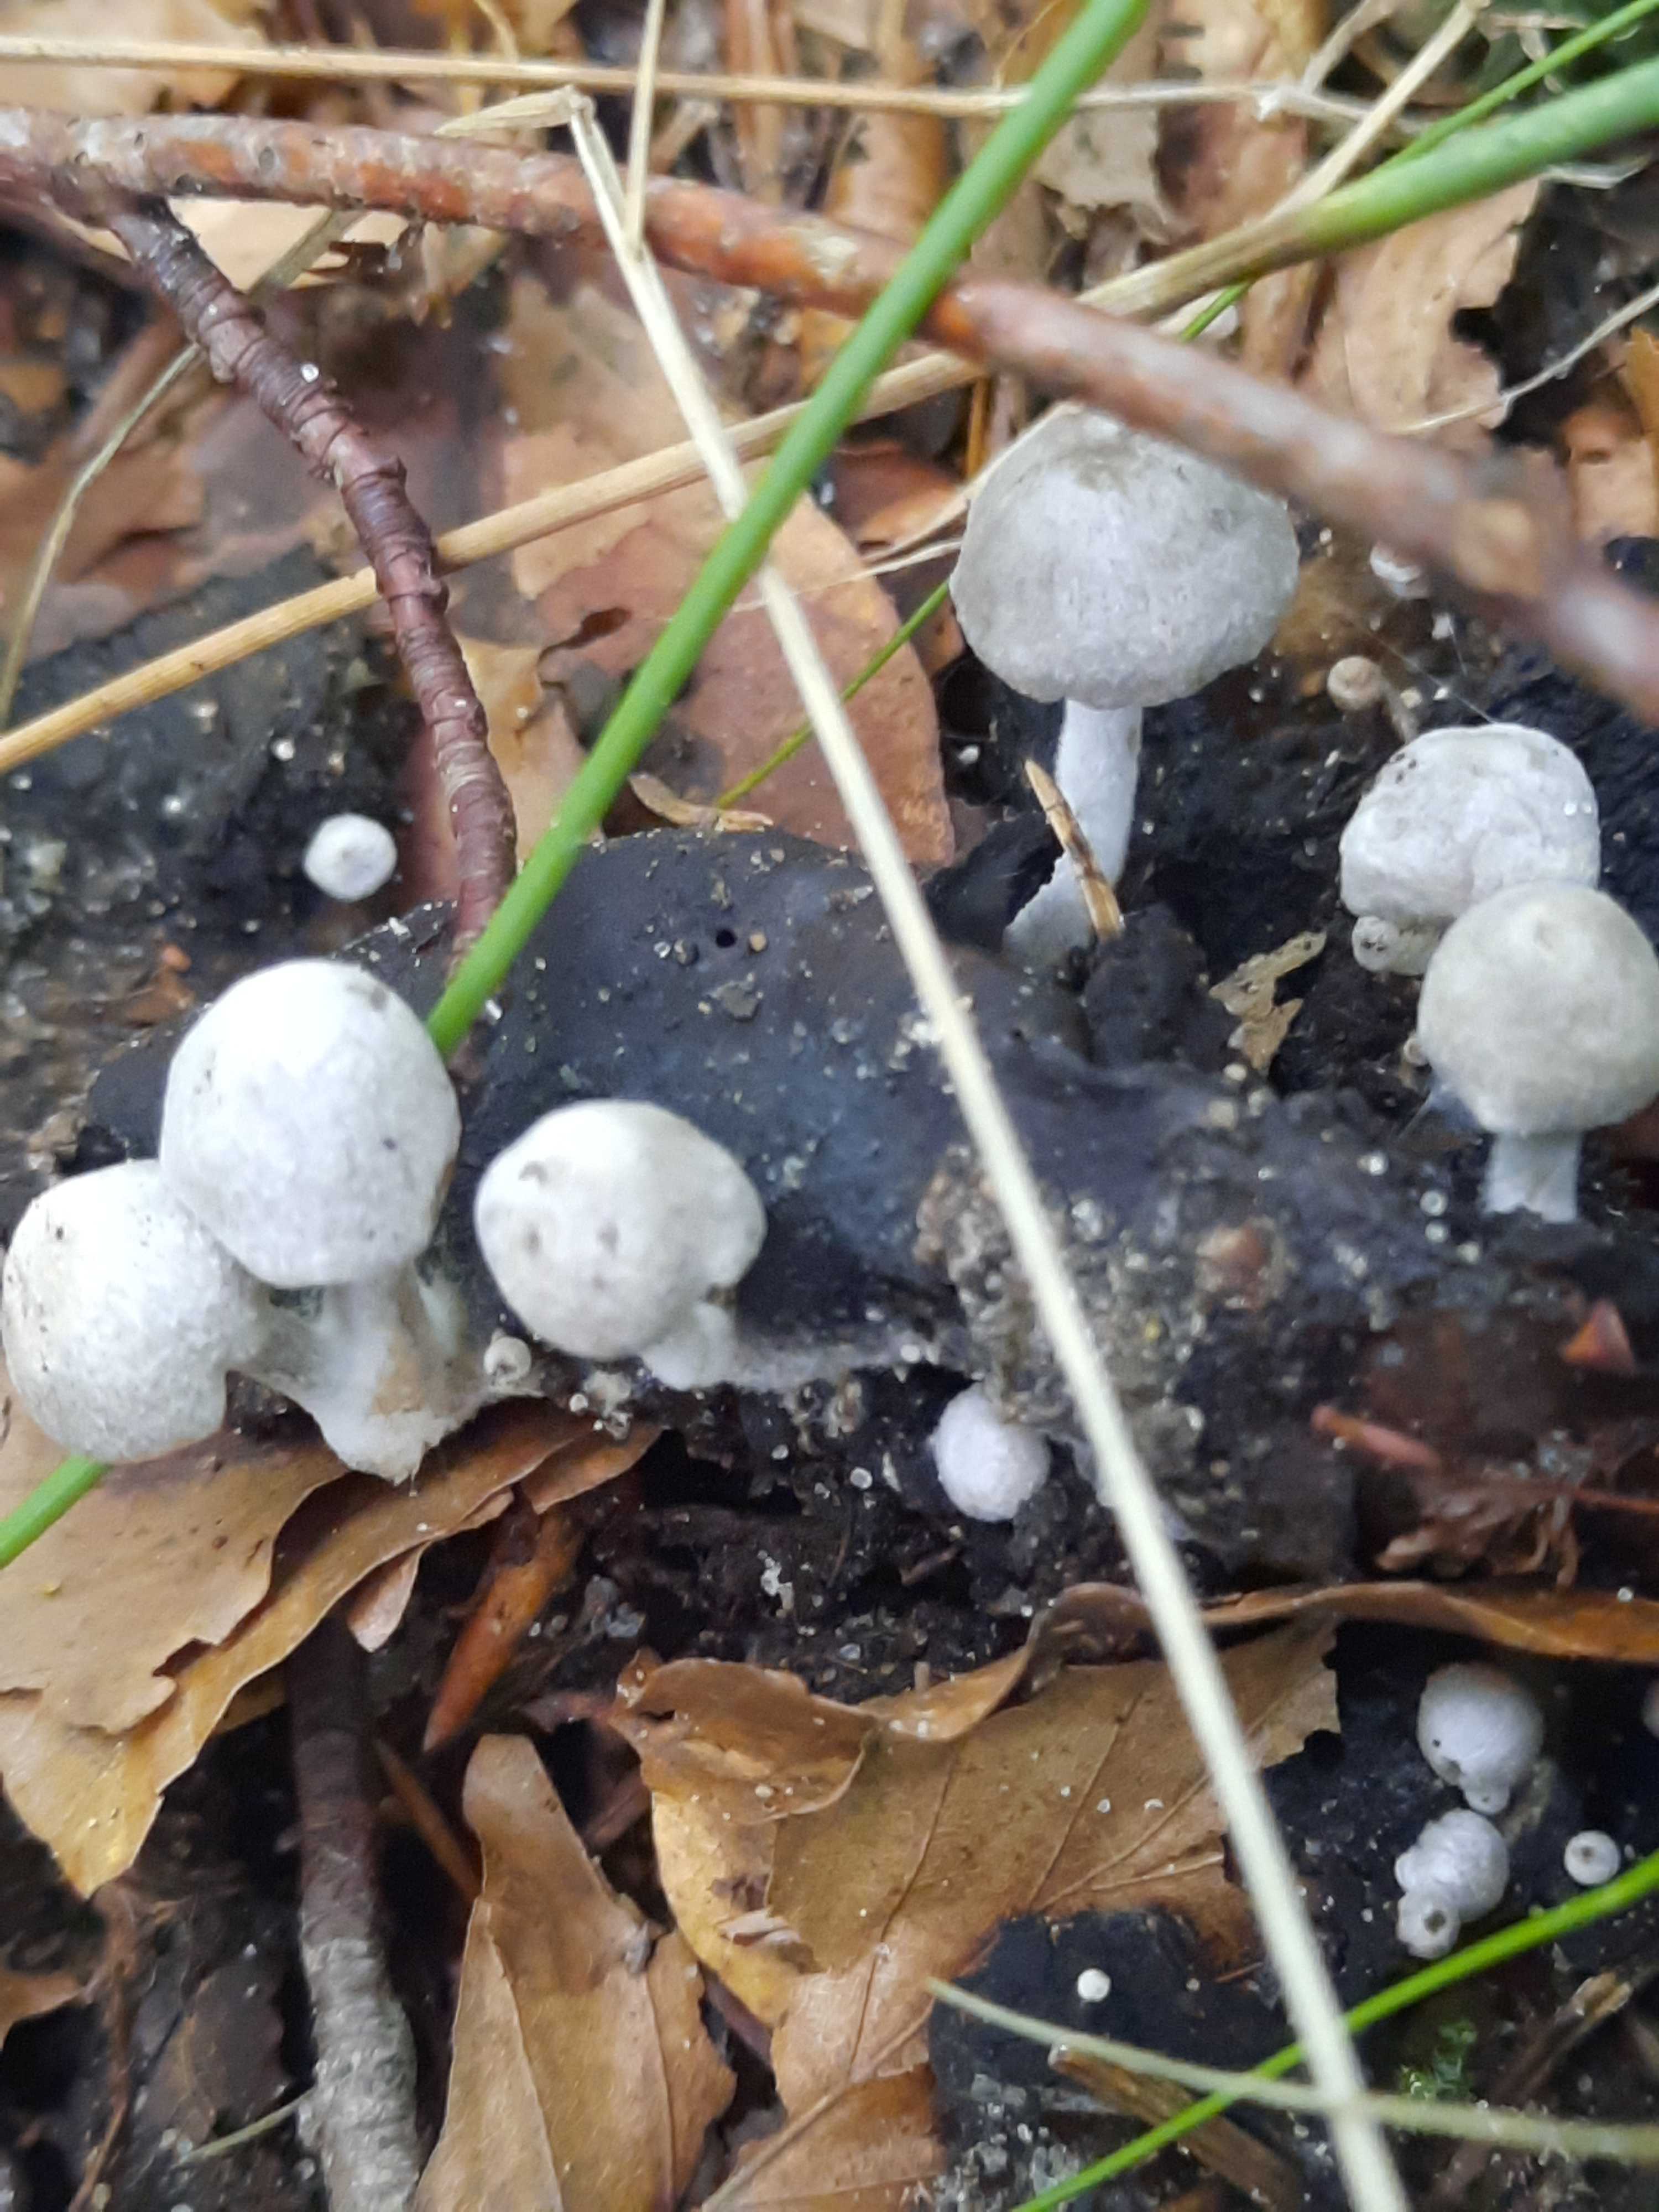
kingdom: Fungi
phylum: Basidiomycota
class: Agaricomycetes
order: Agaricales
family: Lyophyllaceae
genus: Asterophora
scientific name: Asterophora parasitica
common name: grå snyltehat
